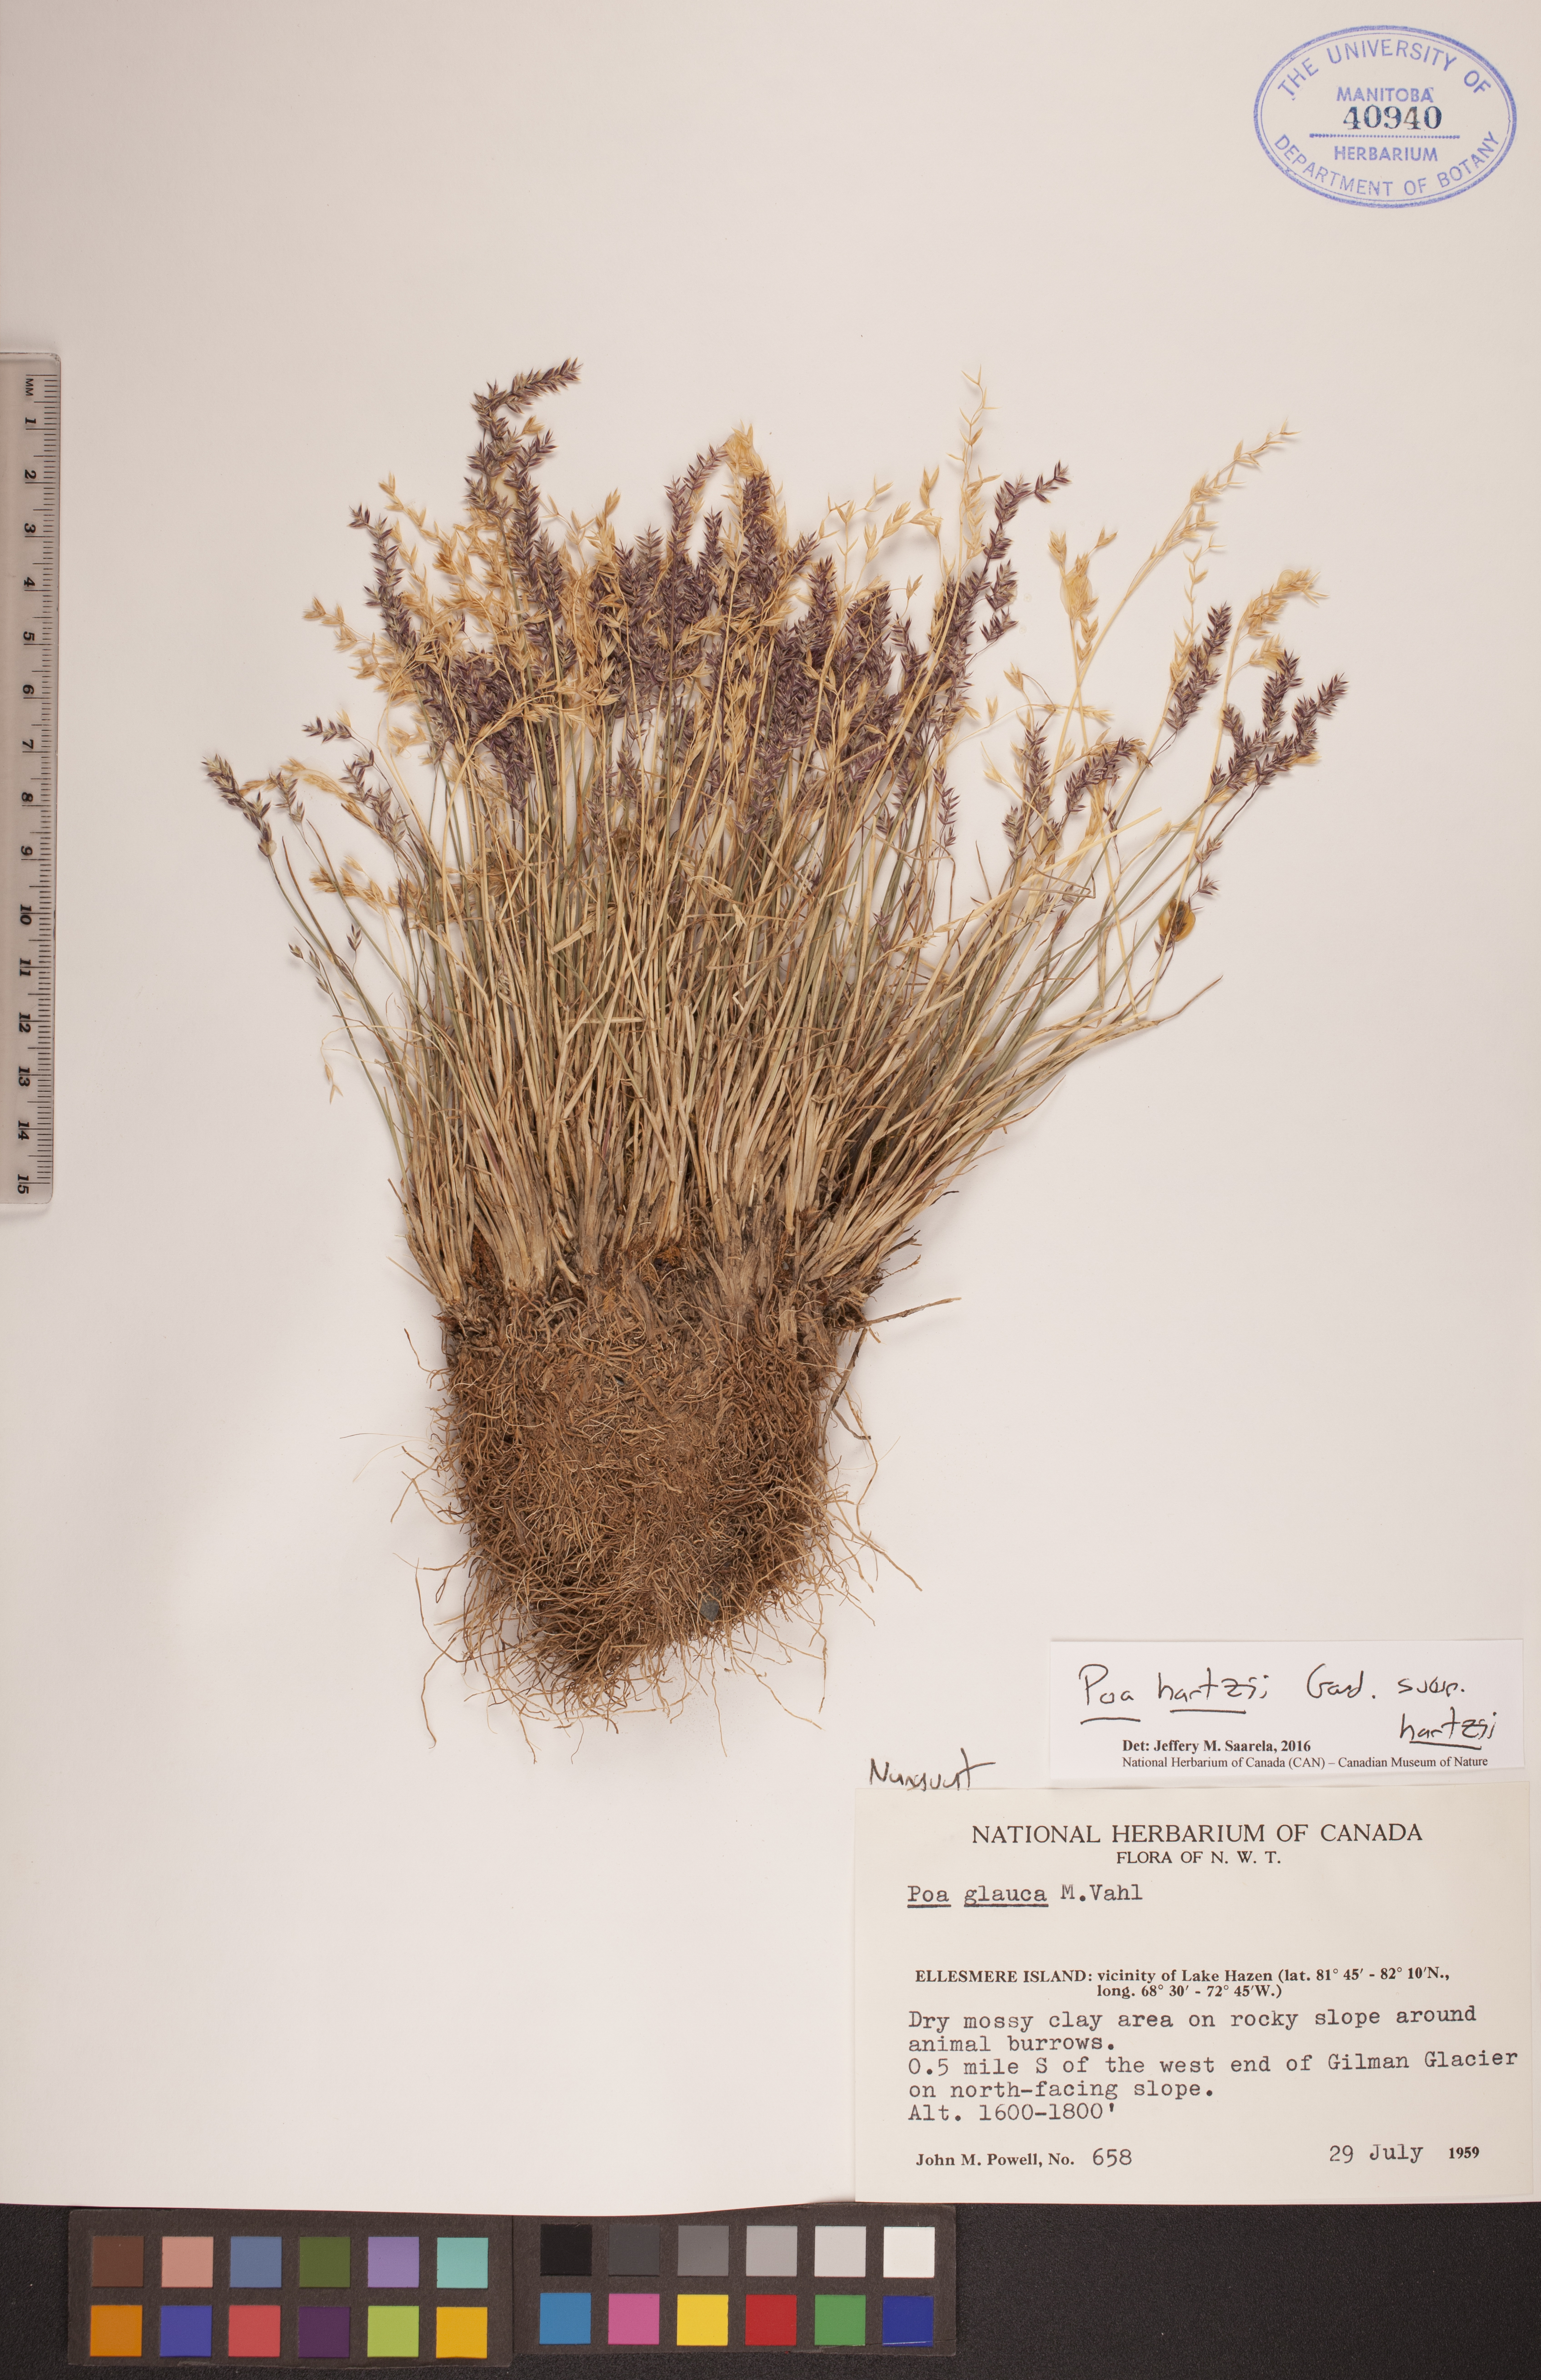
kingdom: Plantae
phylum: Tracheophyta
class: Liliopsida
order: Poales
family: Poaceae
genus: Poa
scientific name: Poa hartzii
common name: Hartz's bluegrass
